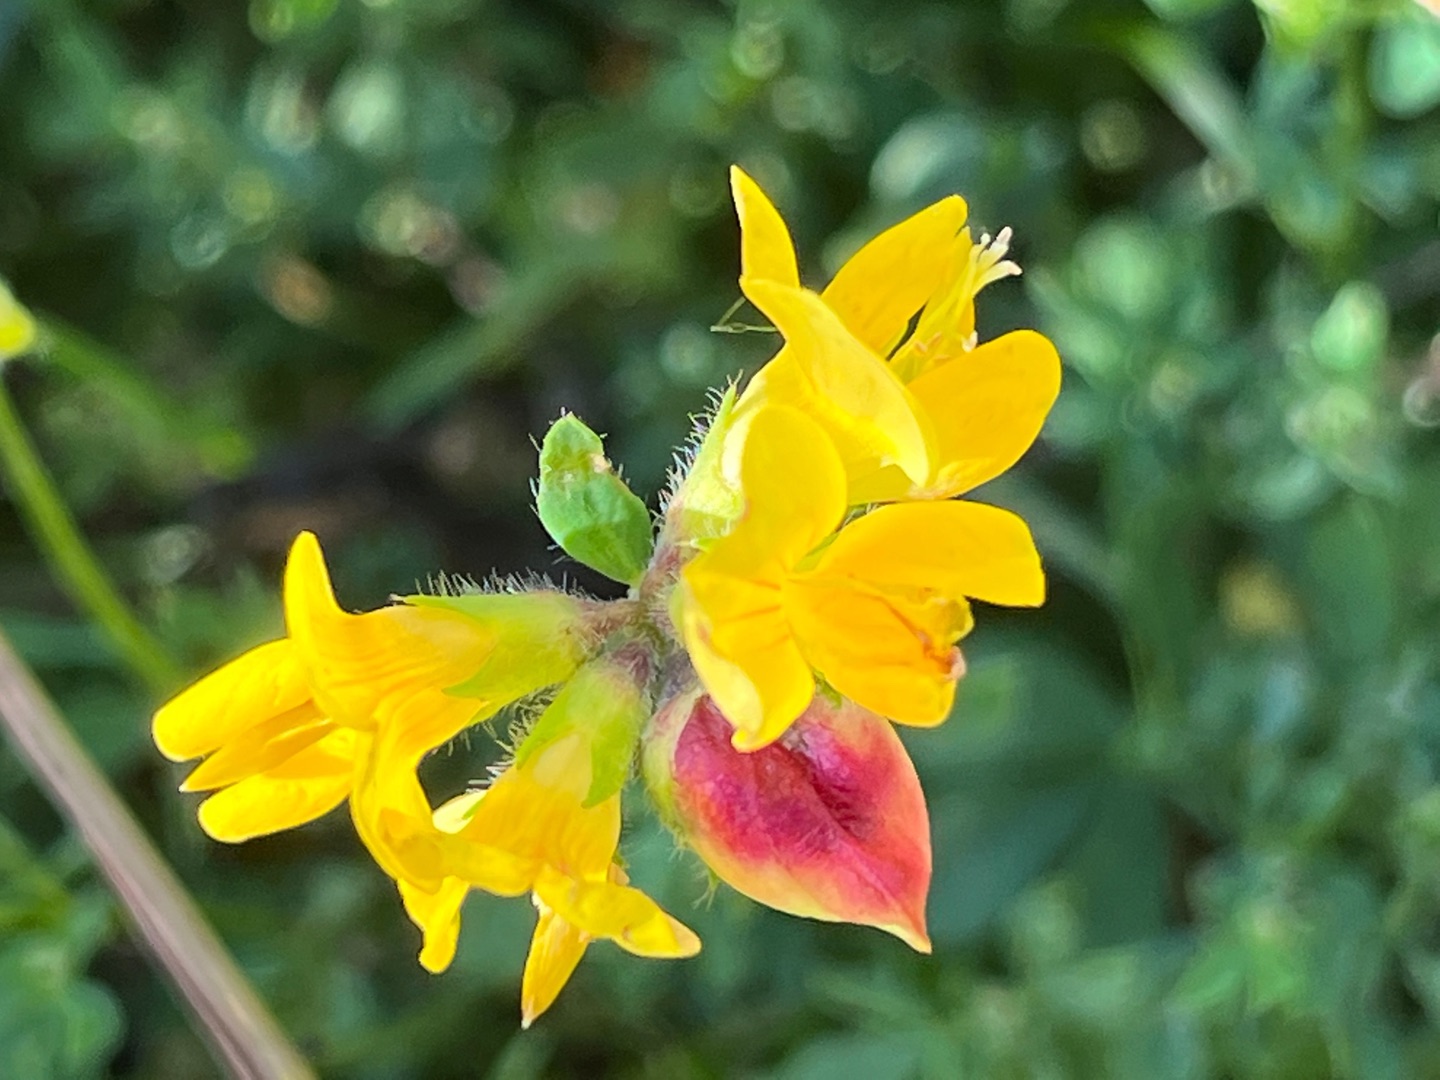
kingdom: Animalia
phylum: Arthropoda
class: Insecta
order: Diptera
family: Cecidomyiidae
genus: Contarinia
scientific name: Contarinia loti
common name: Kællingetandblomstgalmyg
